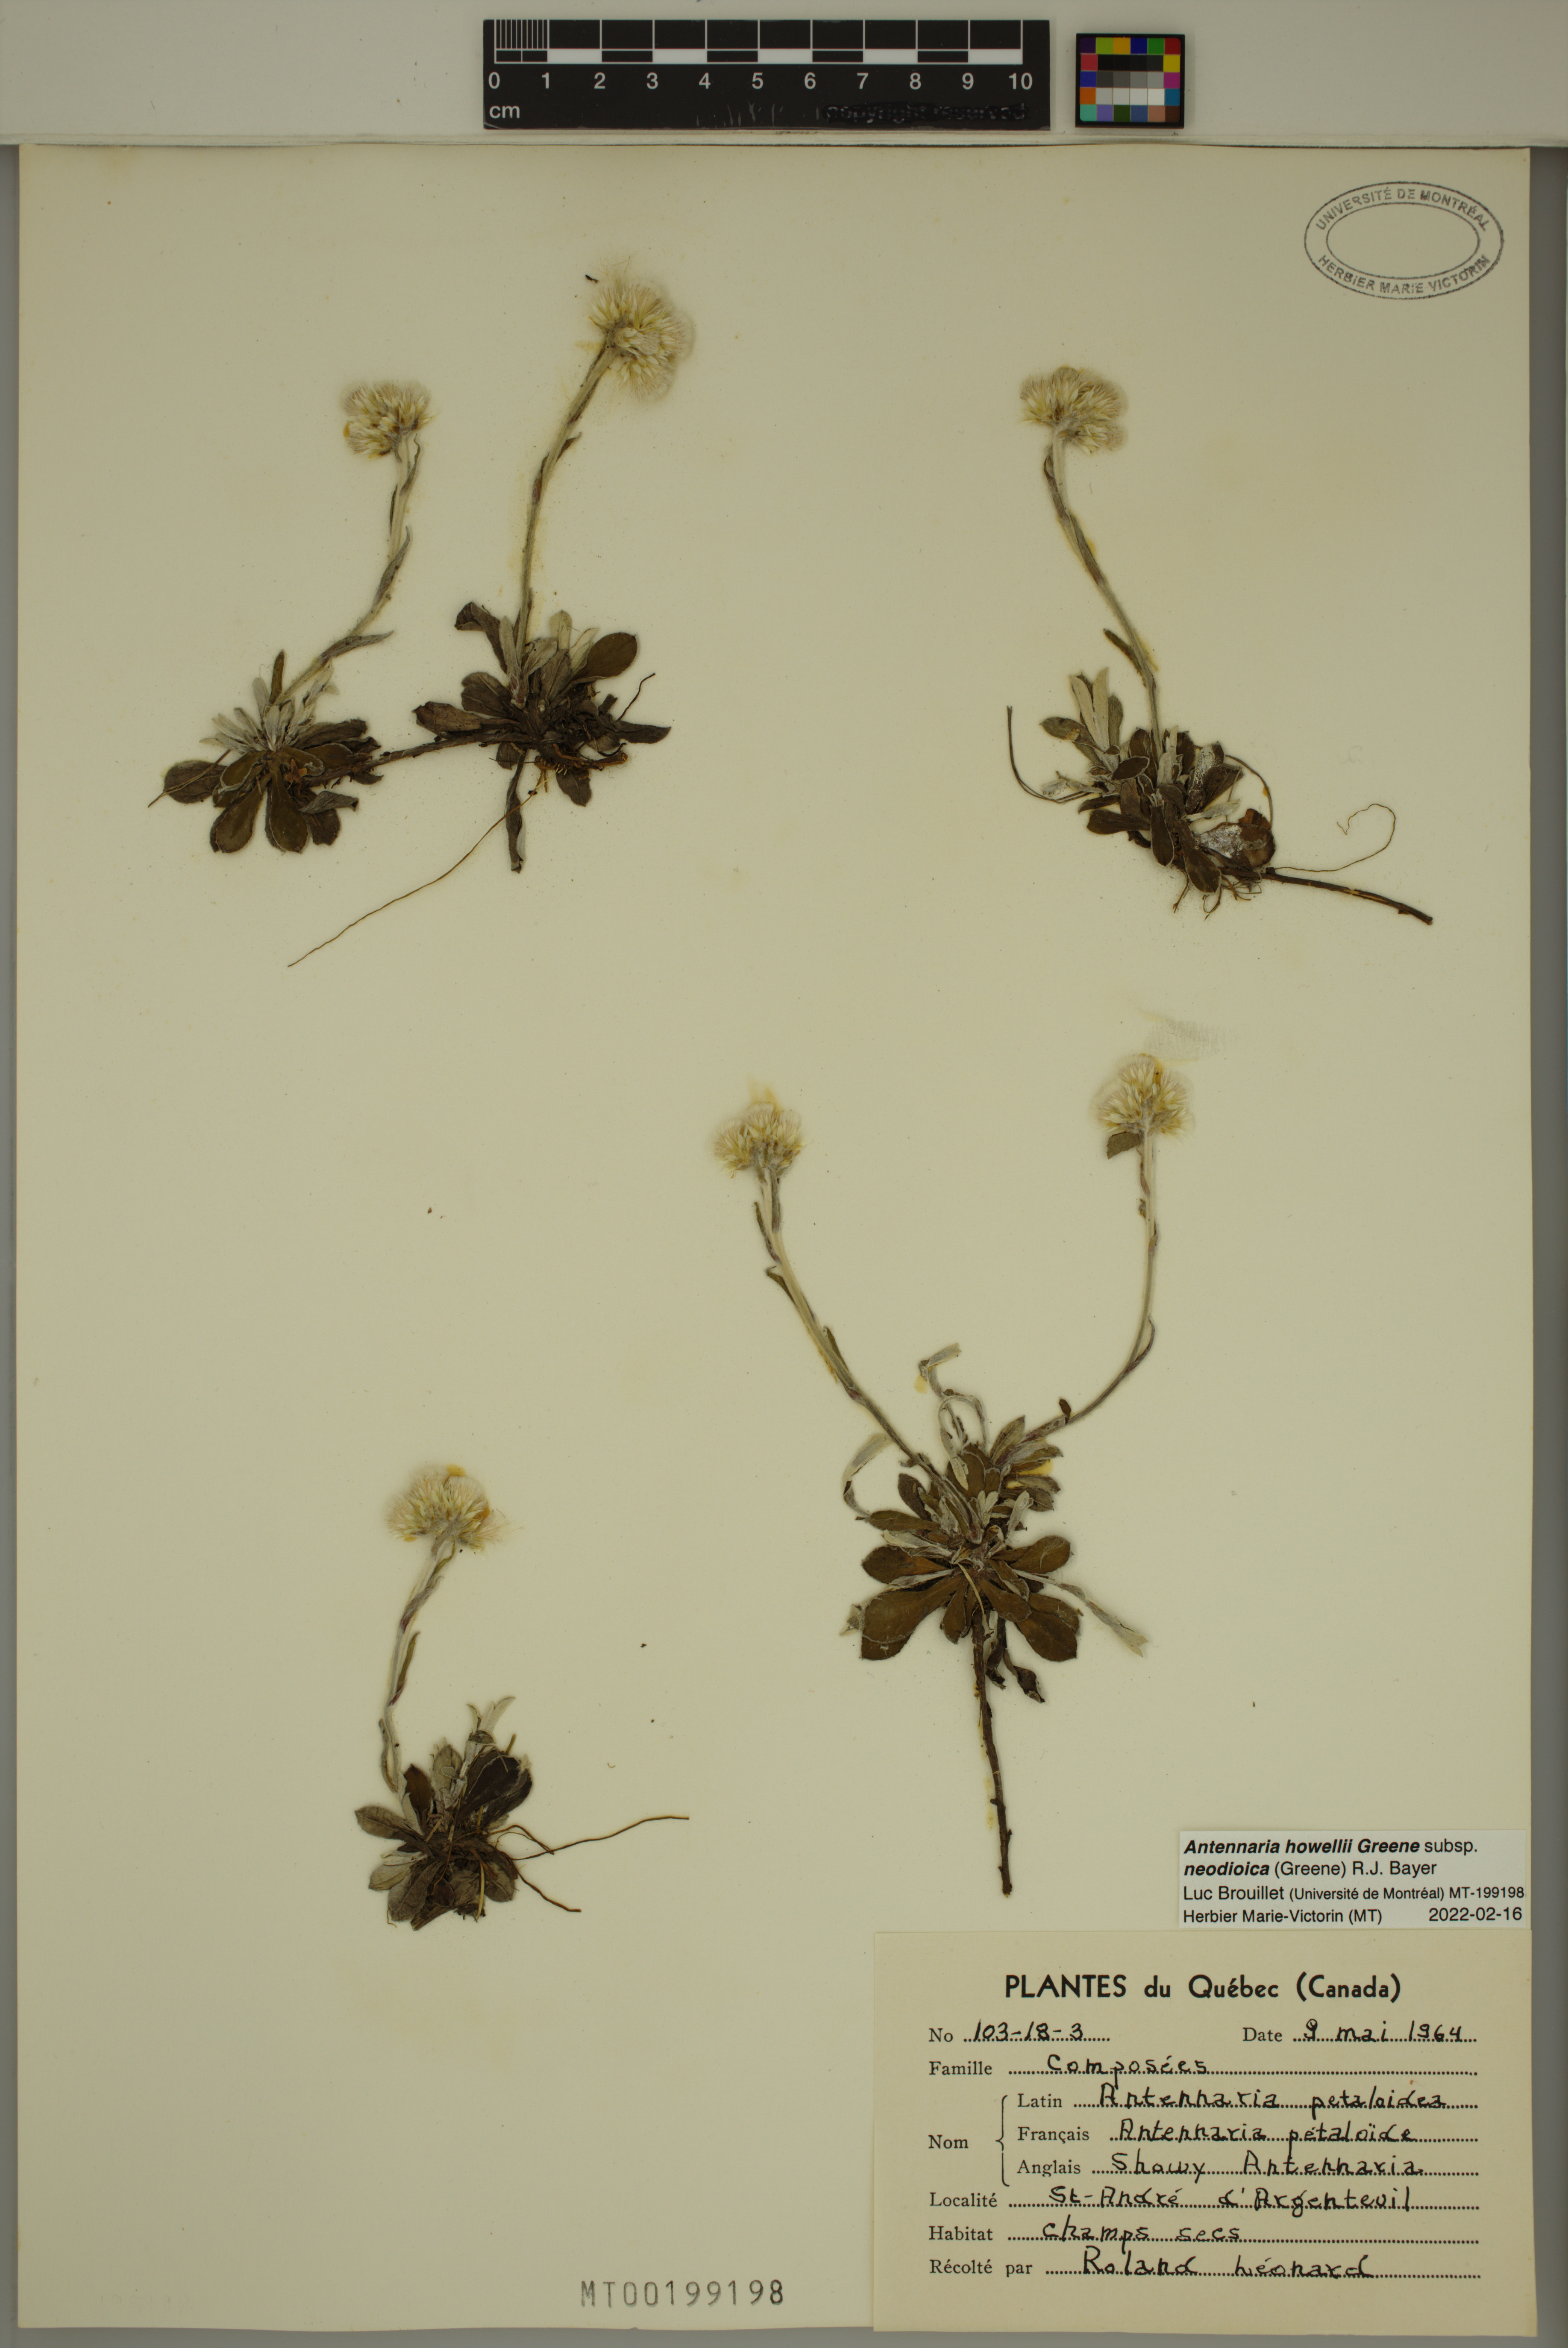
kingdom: Plantae
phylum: Tracheophyta
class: Magnoliopsida
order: Asterales
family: Asteraceae
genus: Antennaria
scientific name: Antennaria howellii
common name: Howell's pussytoes
